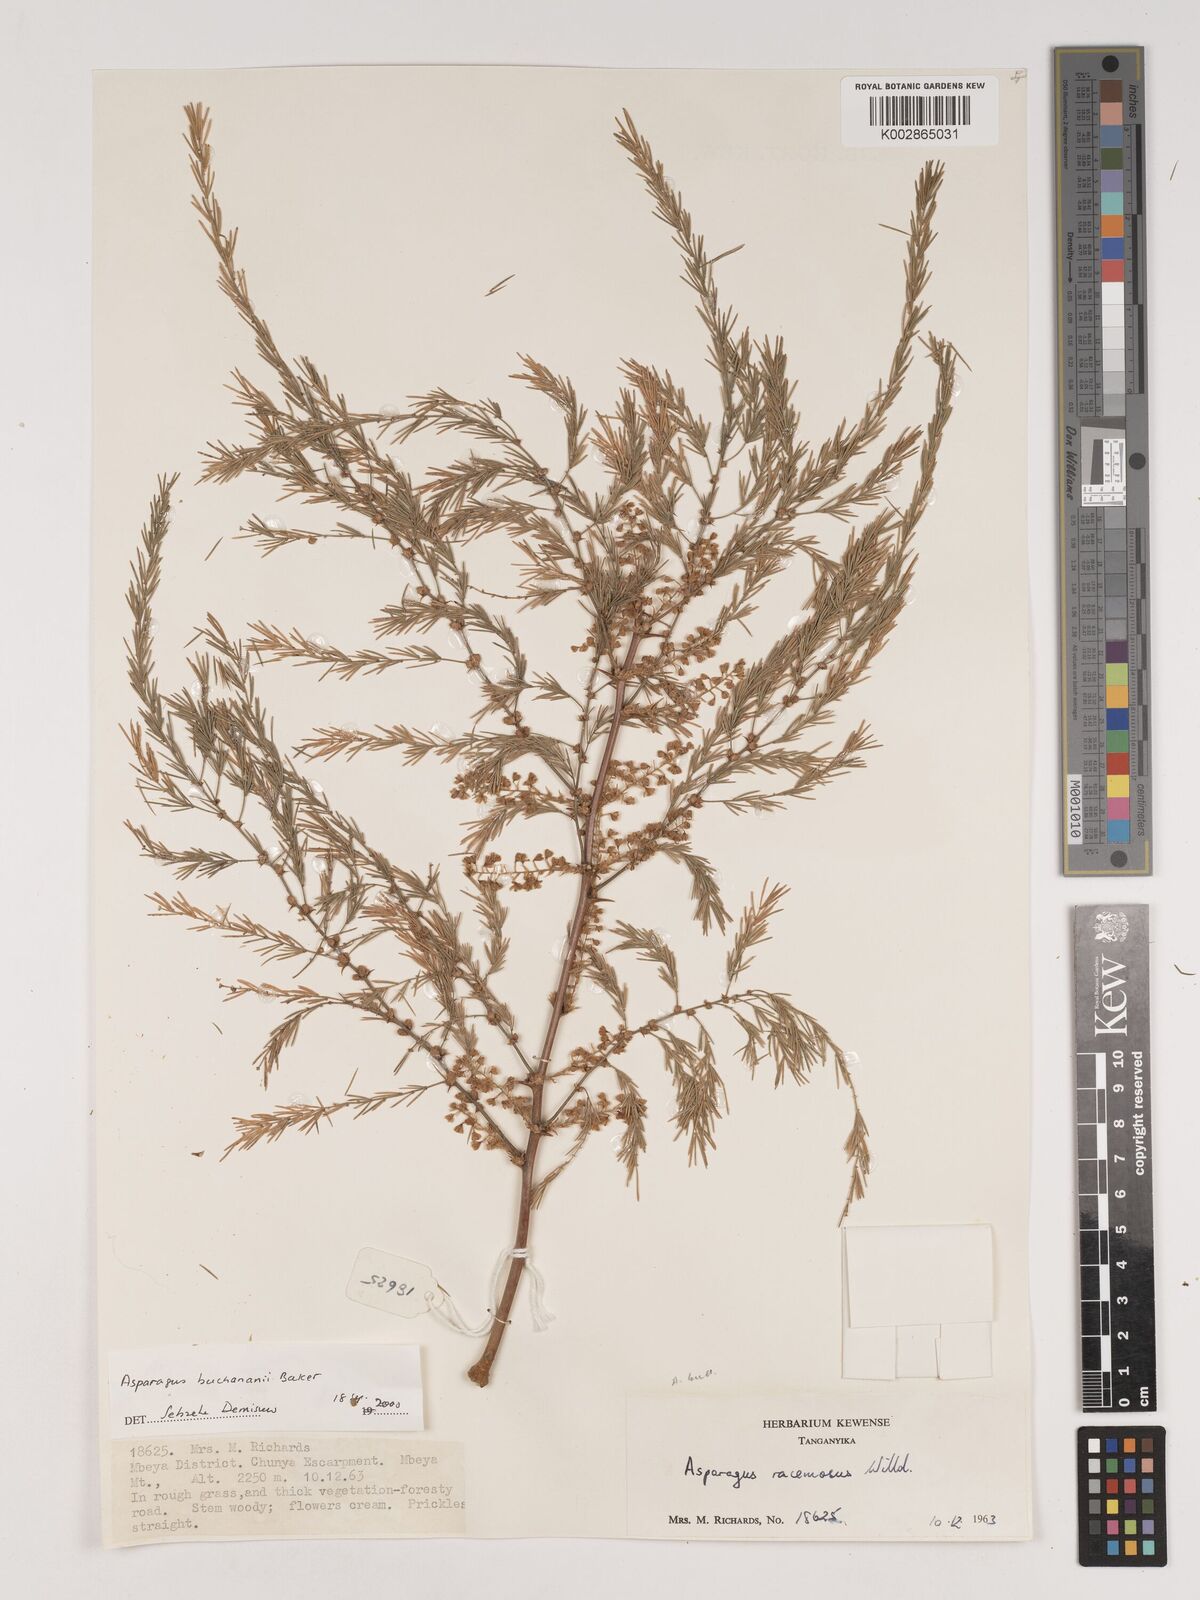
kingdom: Plantae
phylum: Tracheophyta
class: Liliopsida
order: Asparagales
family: Asparagaceae
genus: Asparagus
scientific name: Asparagus buchananii
